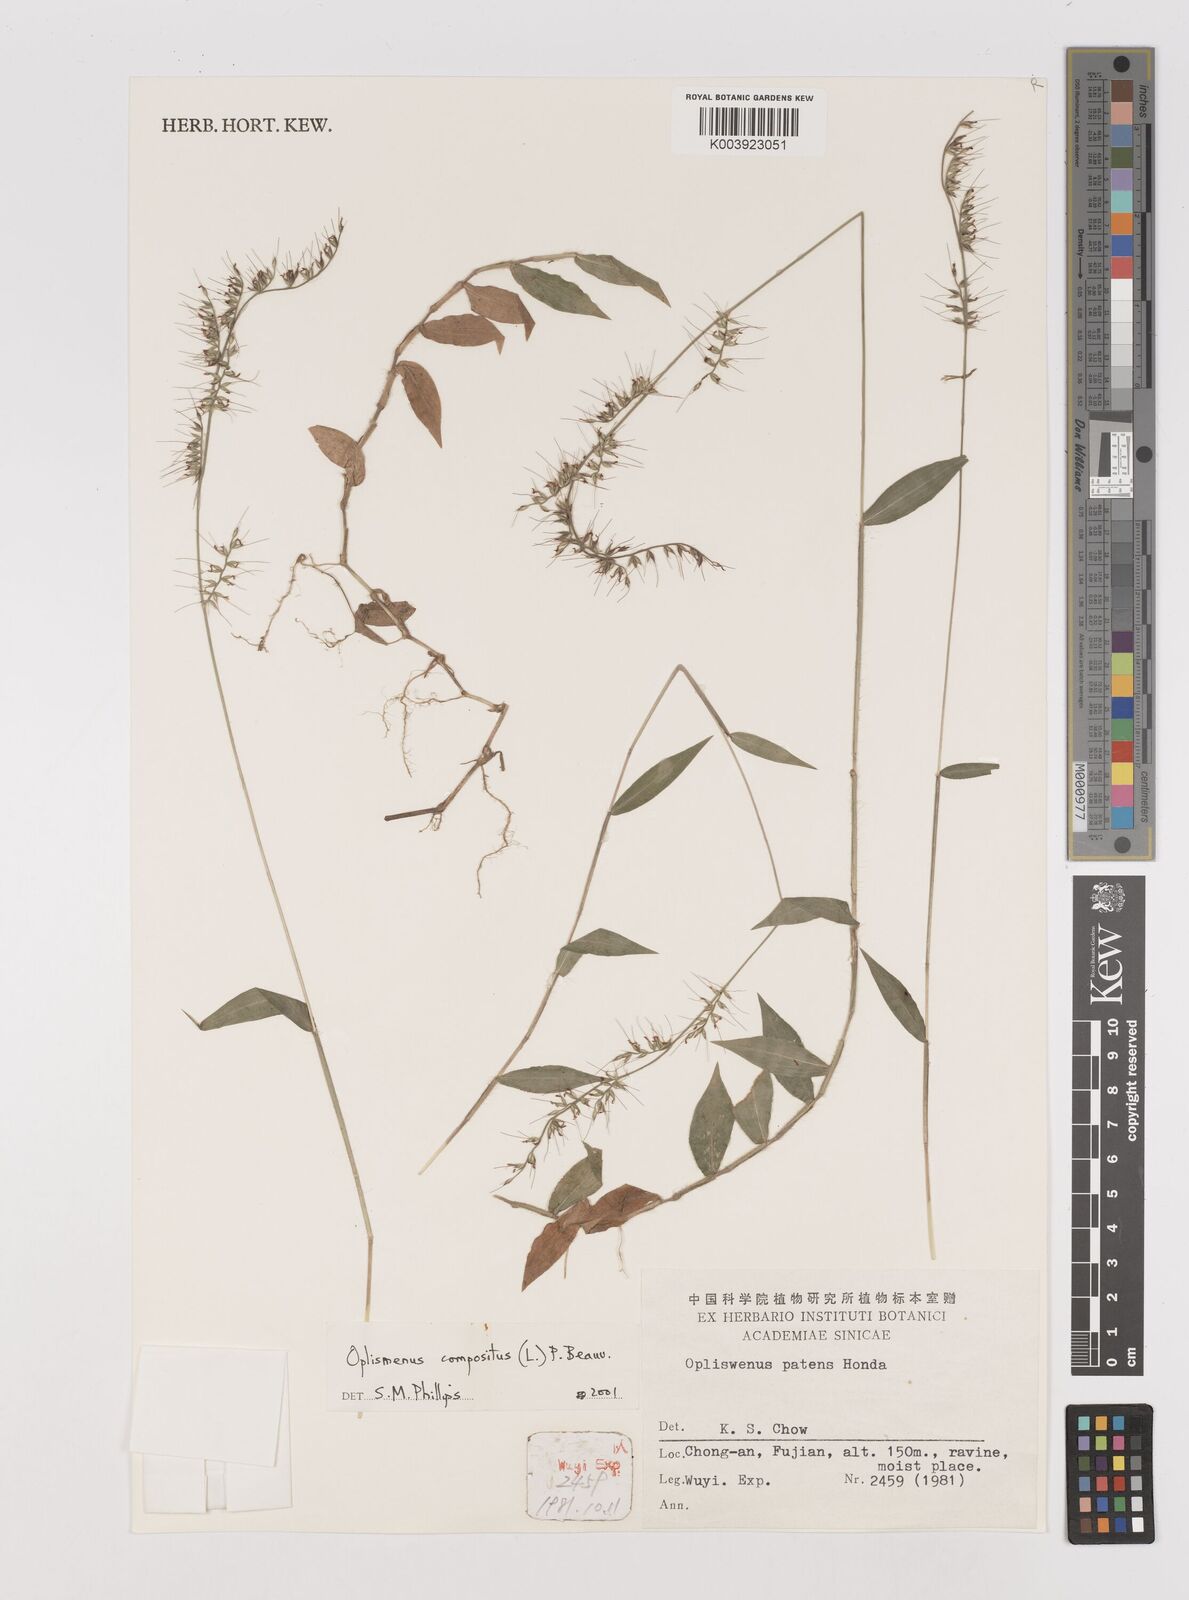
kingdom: Plantae
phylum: Tracheophyta
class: Liliopsida
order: Poales
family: Poaceae
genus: Oplismenus
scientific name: Oplismenus compositus
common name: Running mountain grass
